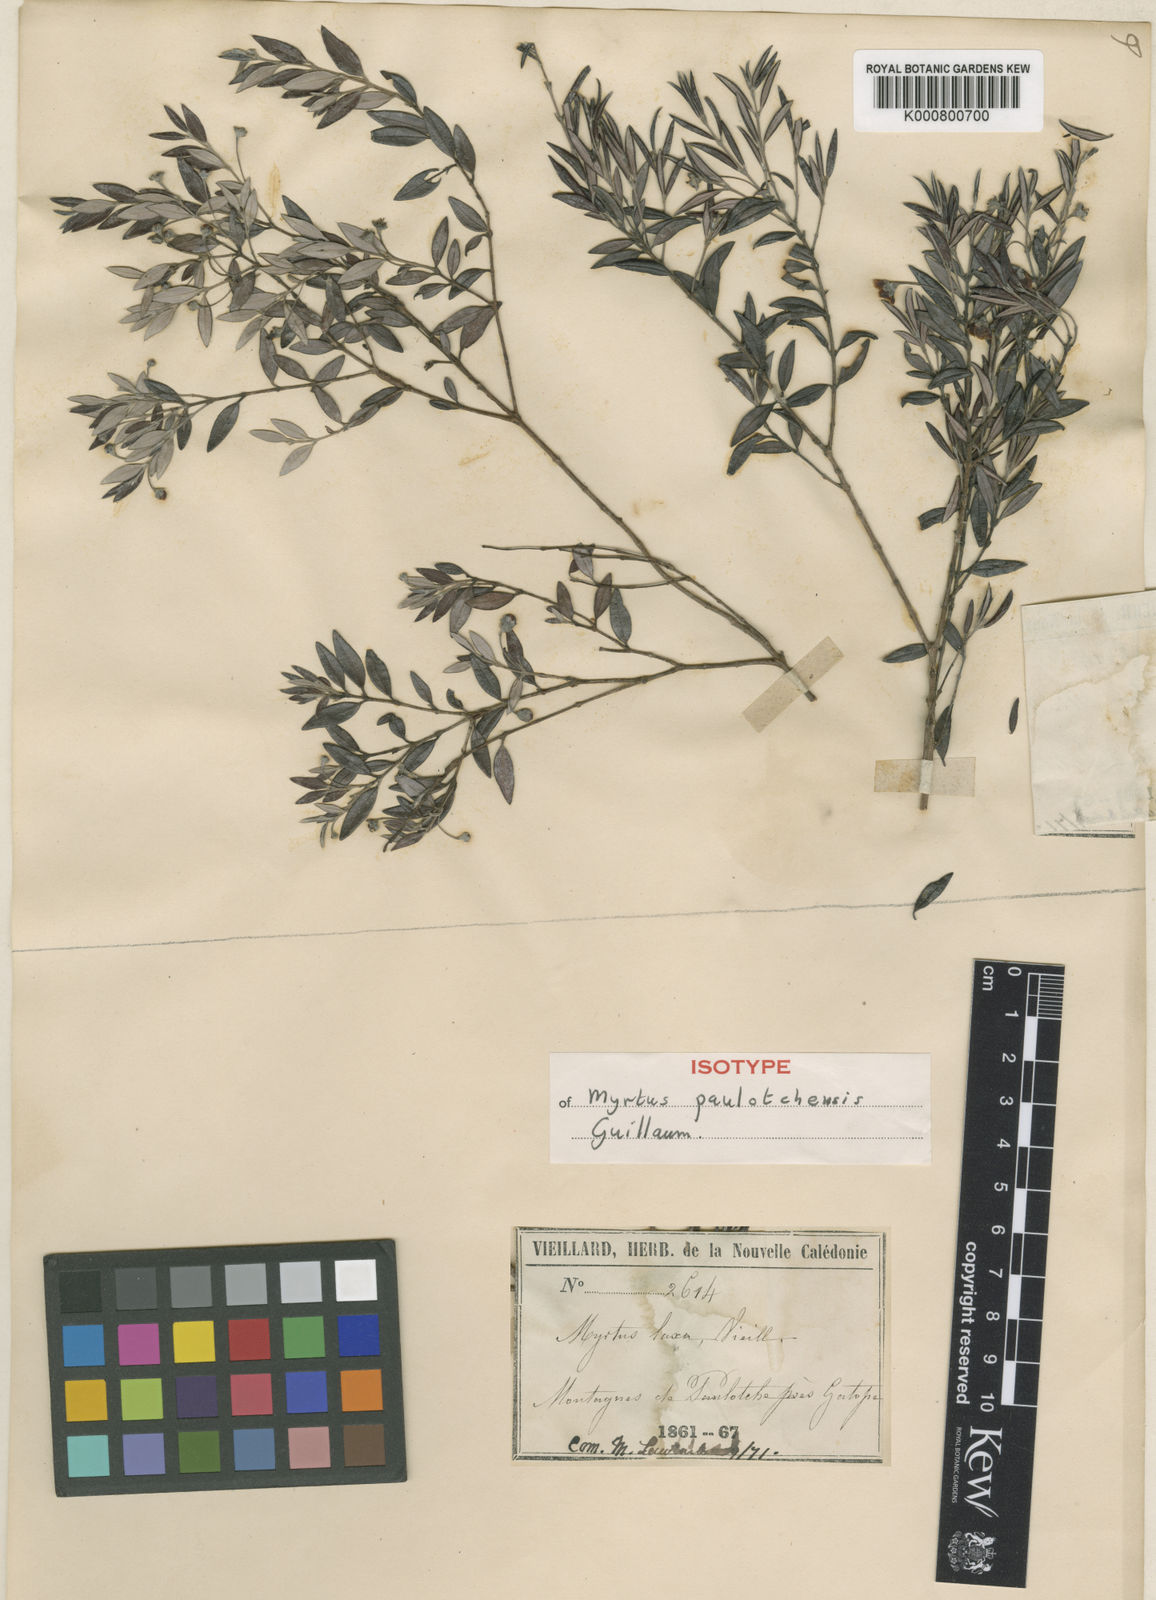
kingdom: Plantae
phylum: Tracheophyta
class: Magnoliopsida
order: Myrtales
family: Myrtaceae
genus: Uromyrtus
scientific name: Uromyrtus paulotchensis
